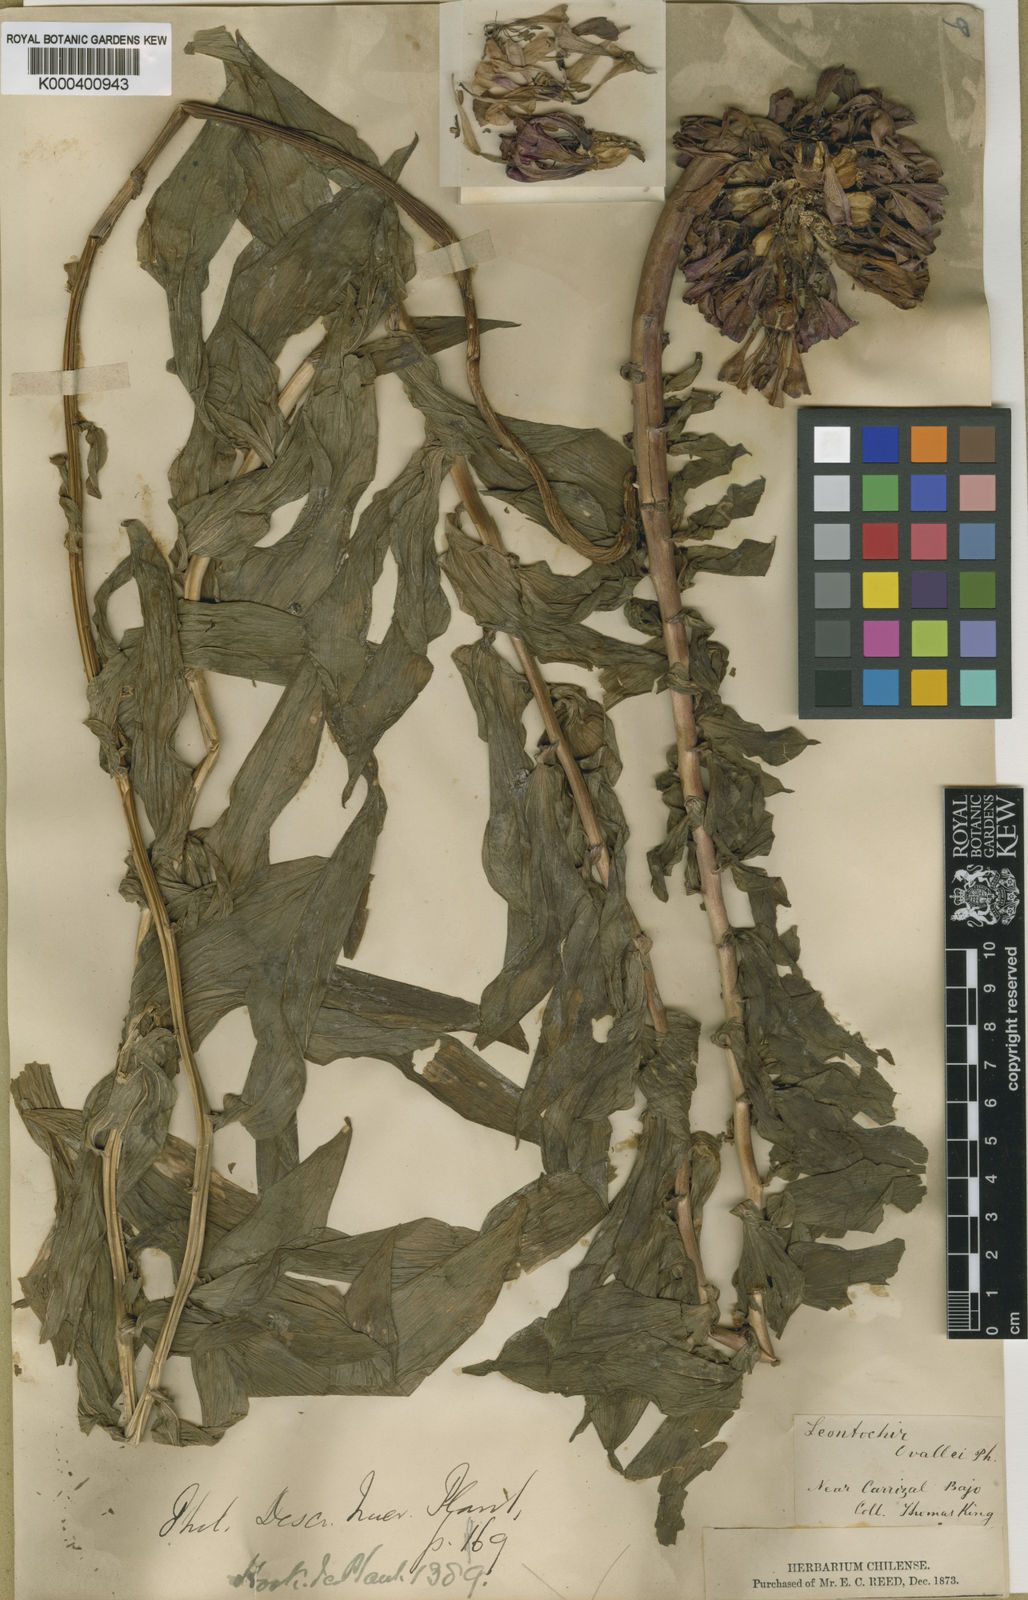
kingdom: Plantae
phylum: Tracheophyta
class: Liliopsida
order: Liliales
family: Alstroemeriaceae
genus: Bomarea
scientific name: Bomarea ovallei
